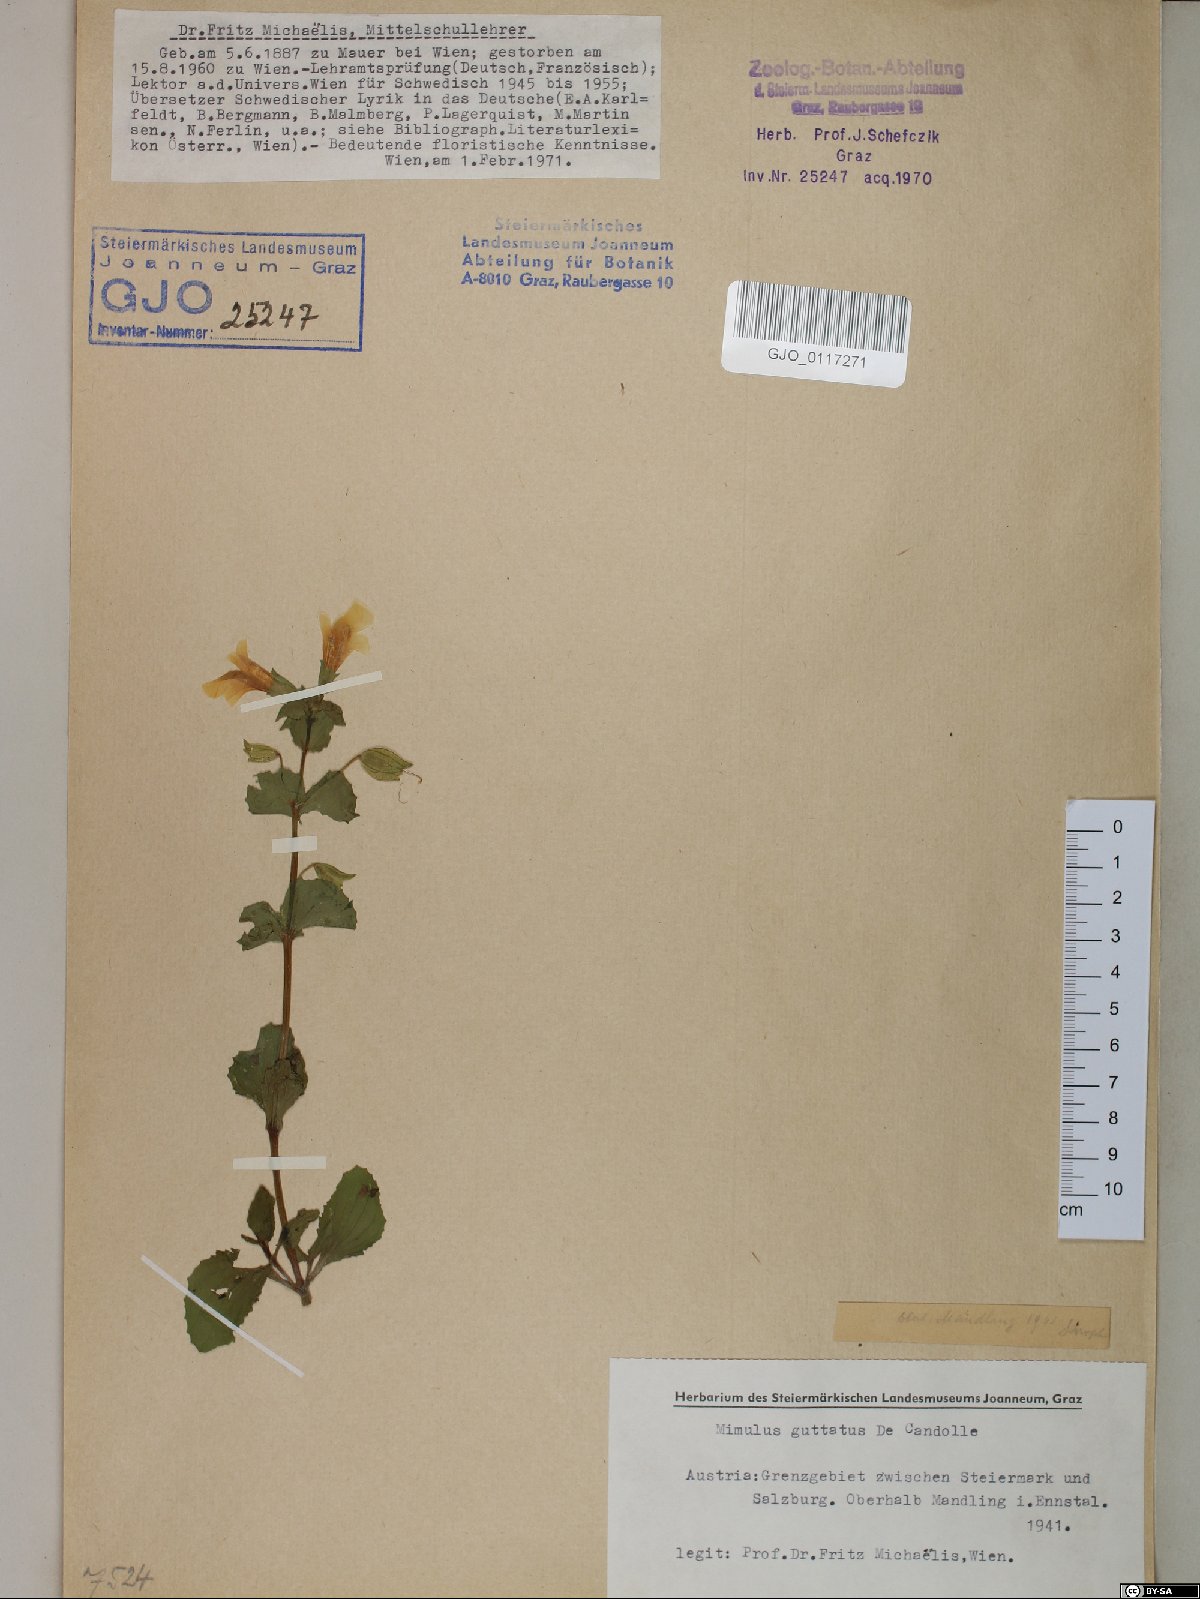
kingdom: Plantae
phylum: Tracheophyta
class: Magnoliopsida
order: Lamiales
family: Phrymaceae
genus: Erythranthe
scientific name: Erythranthe guttata
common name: Monkeyflower
